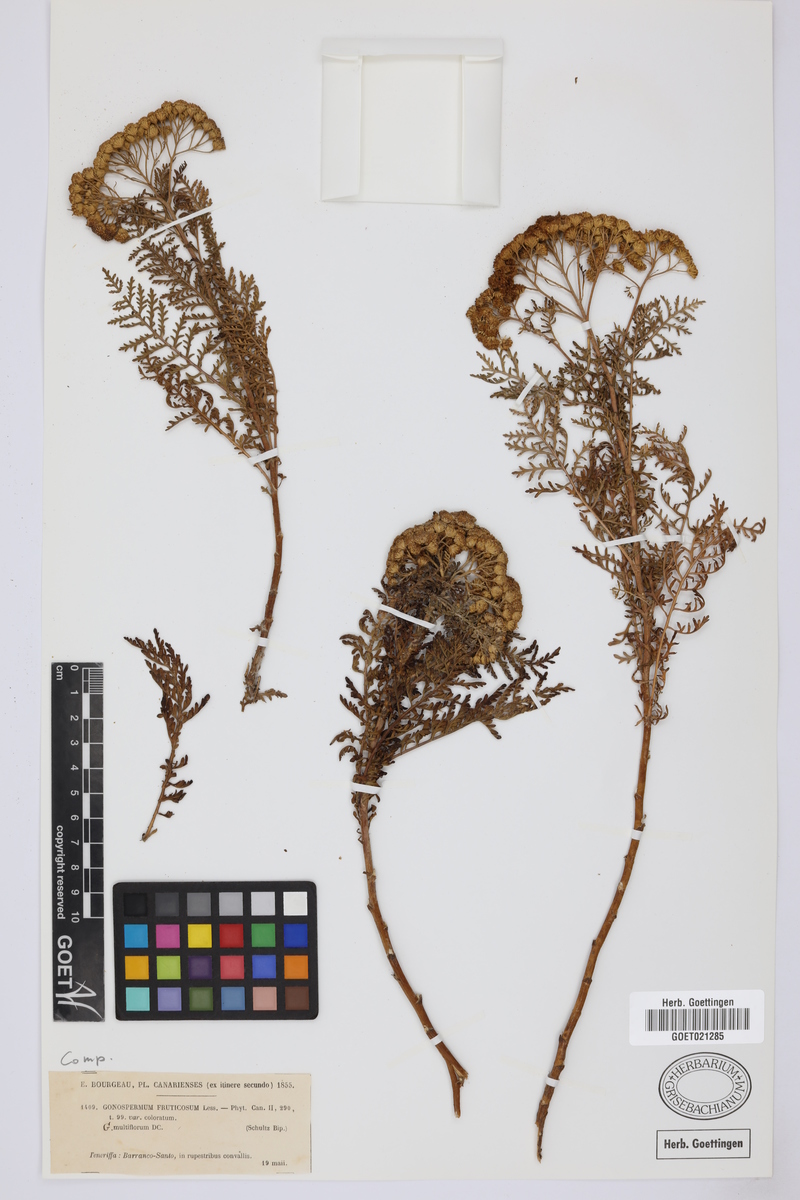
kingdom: Plantae
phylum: Tracheophyta
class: Magnoliopsida
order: Asterales
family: Asteraceae
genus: Gonospermum
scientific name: Gonospermum fruticosum
